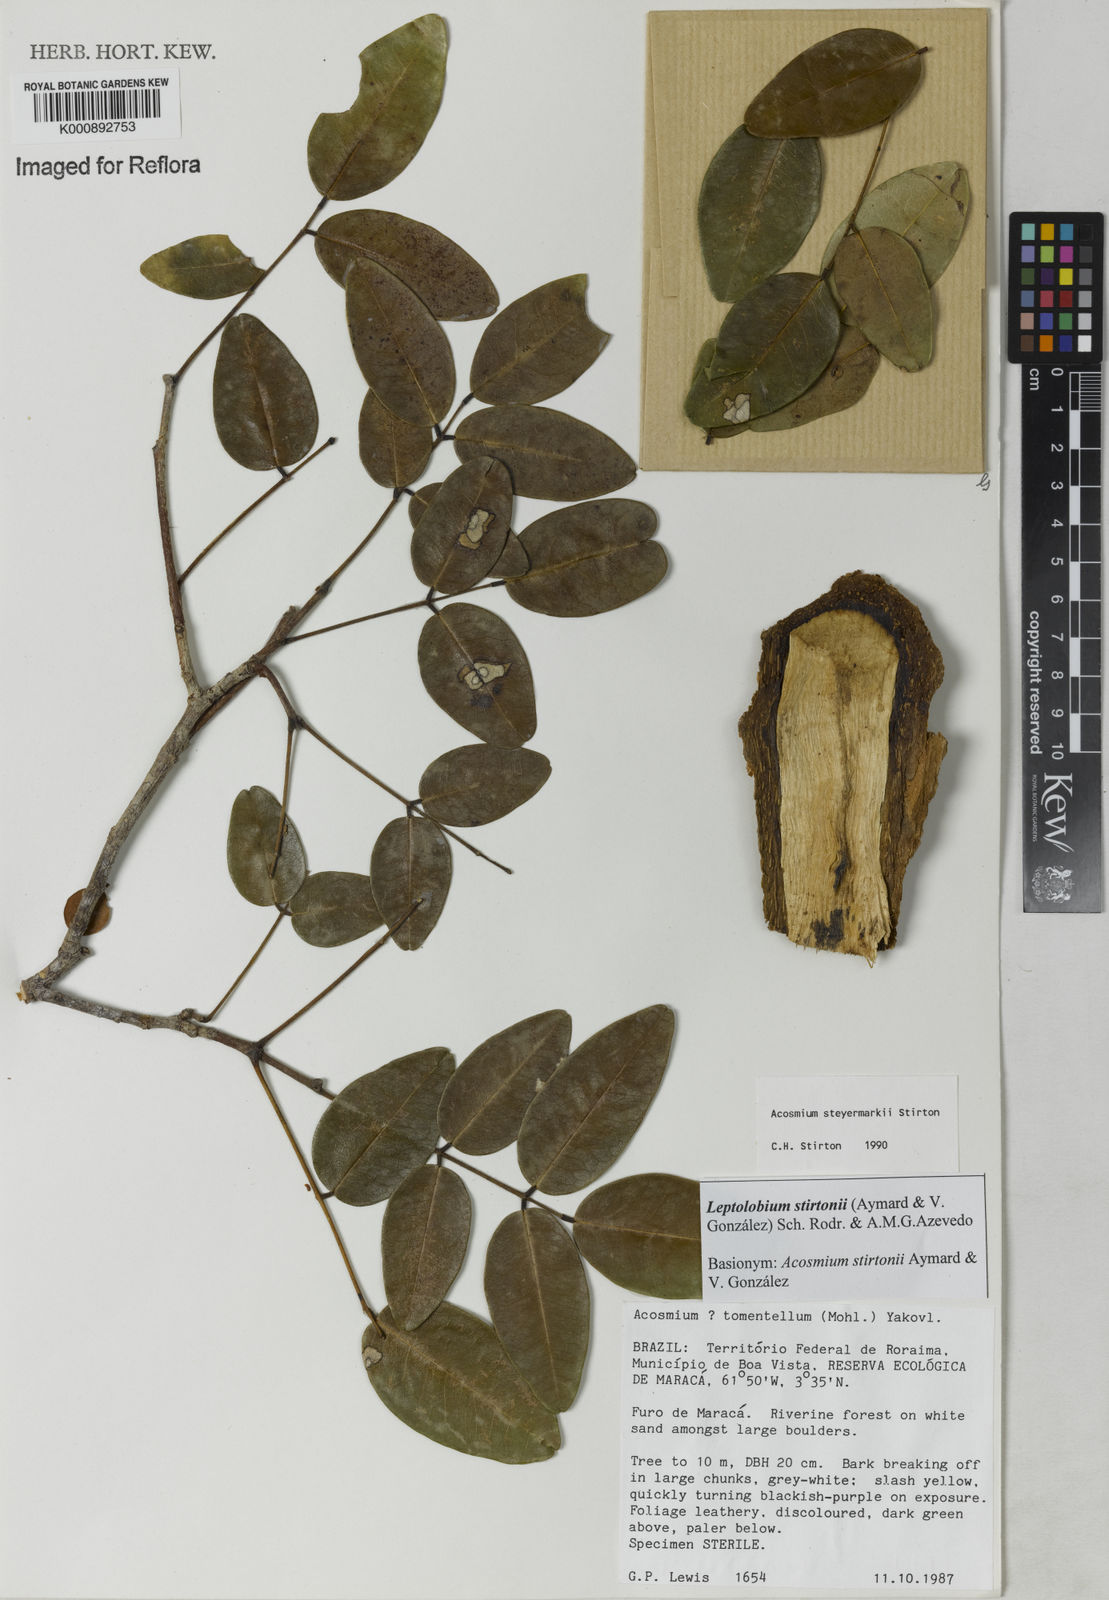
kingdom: Plantae
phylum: Tracheophyta
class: Magnoliopsida
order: Fabales
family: Fabaceae
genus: Leptolobium
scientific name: Leptolobium
